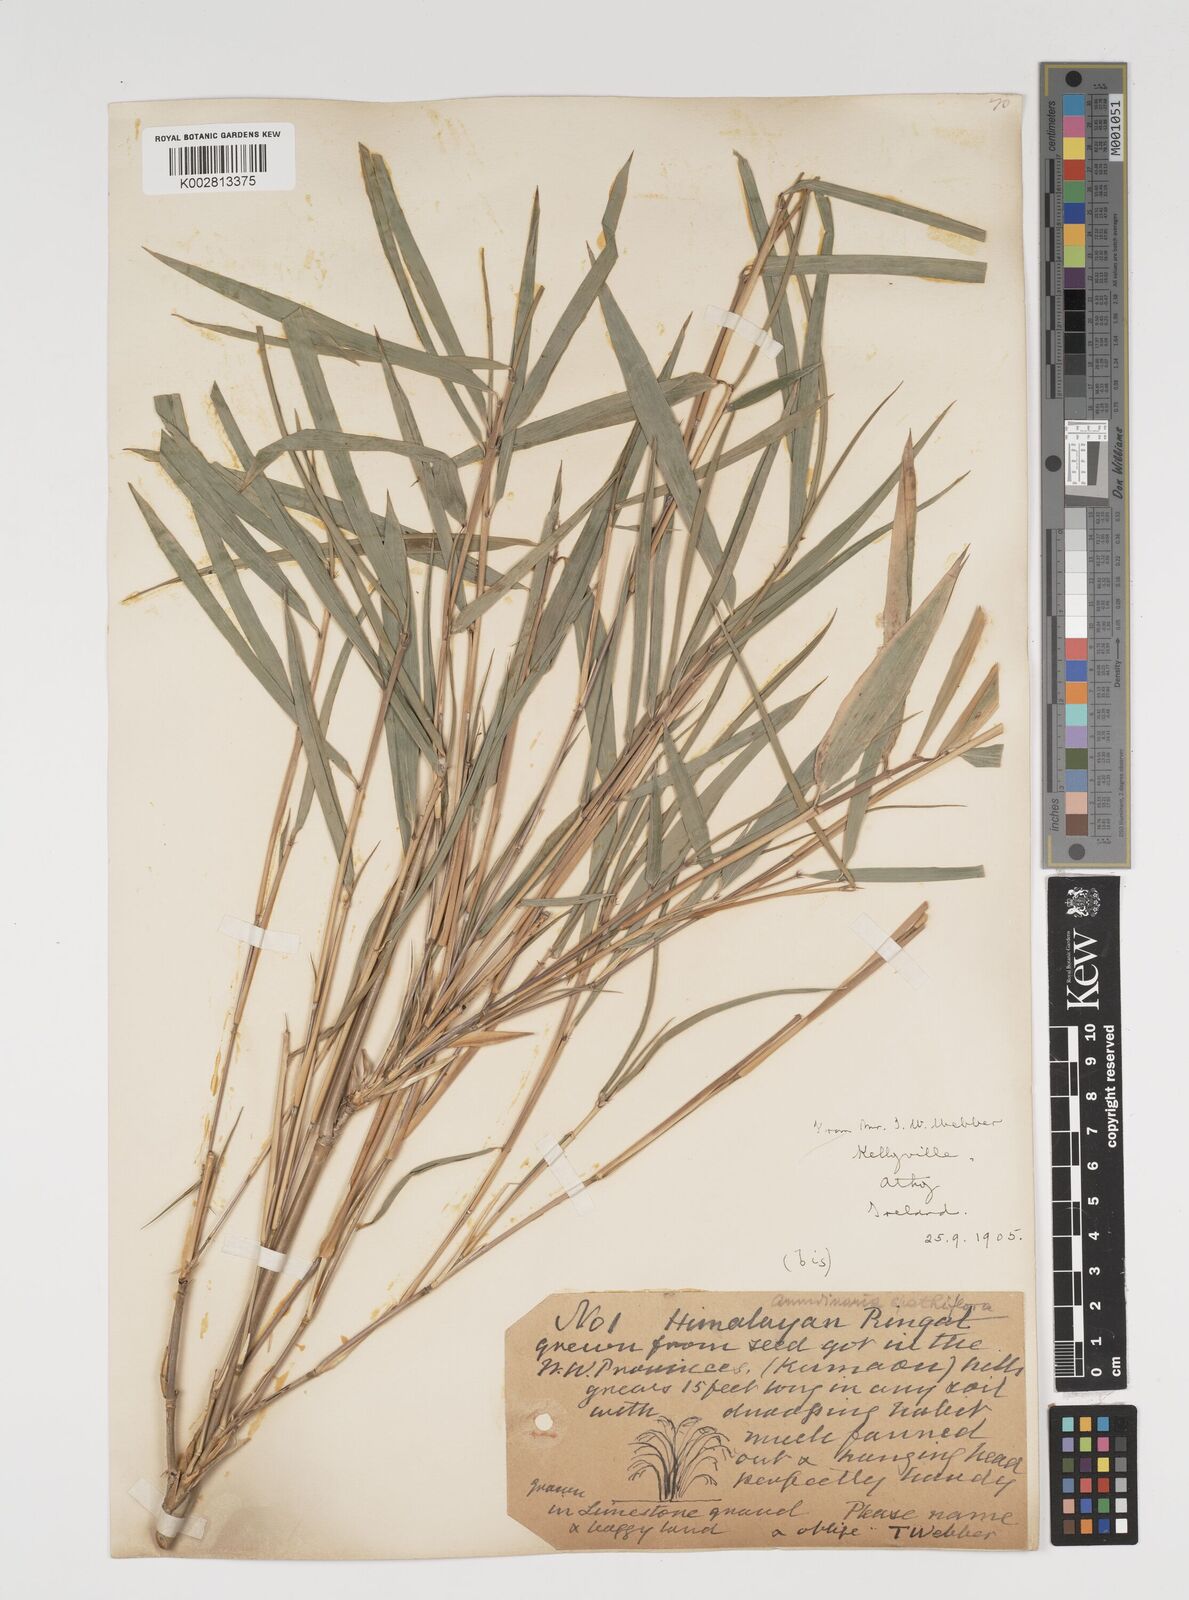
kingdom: Plantae
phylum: Tracheophyta
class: Liliopsida
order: Poales
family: Poaceae
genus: Thamnocalamus
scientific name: Thamnocalamus spathiflorus
